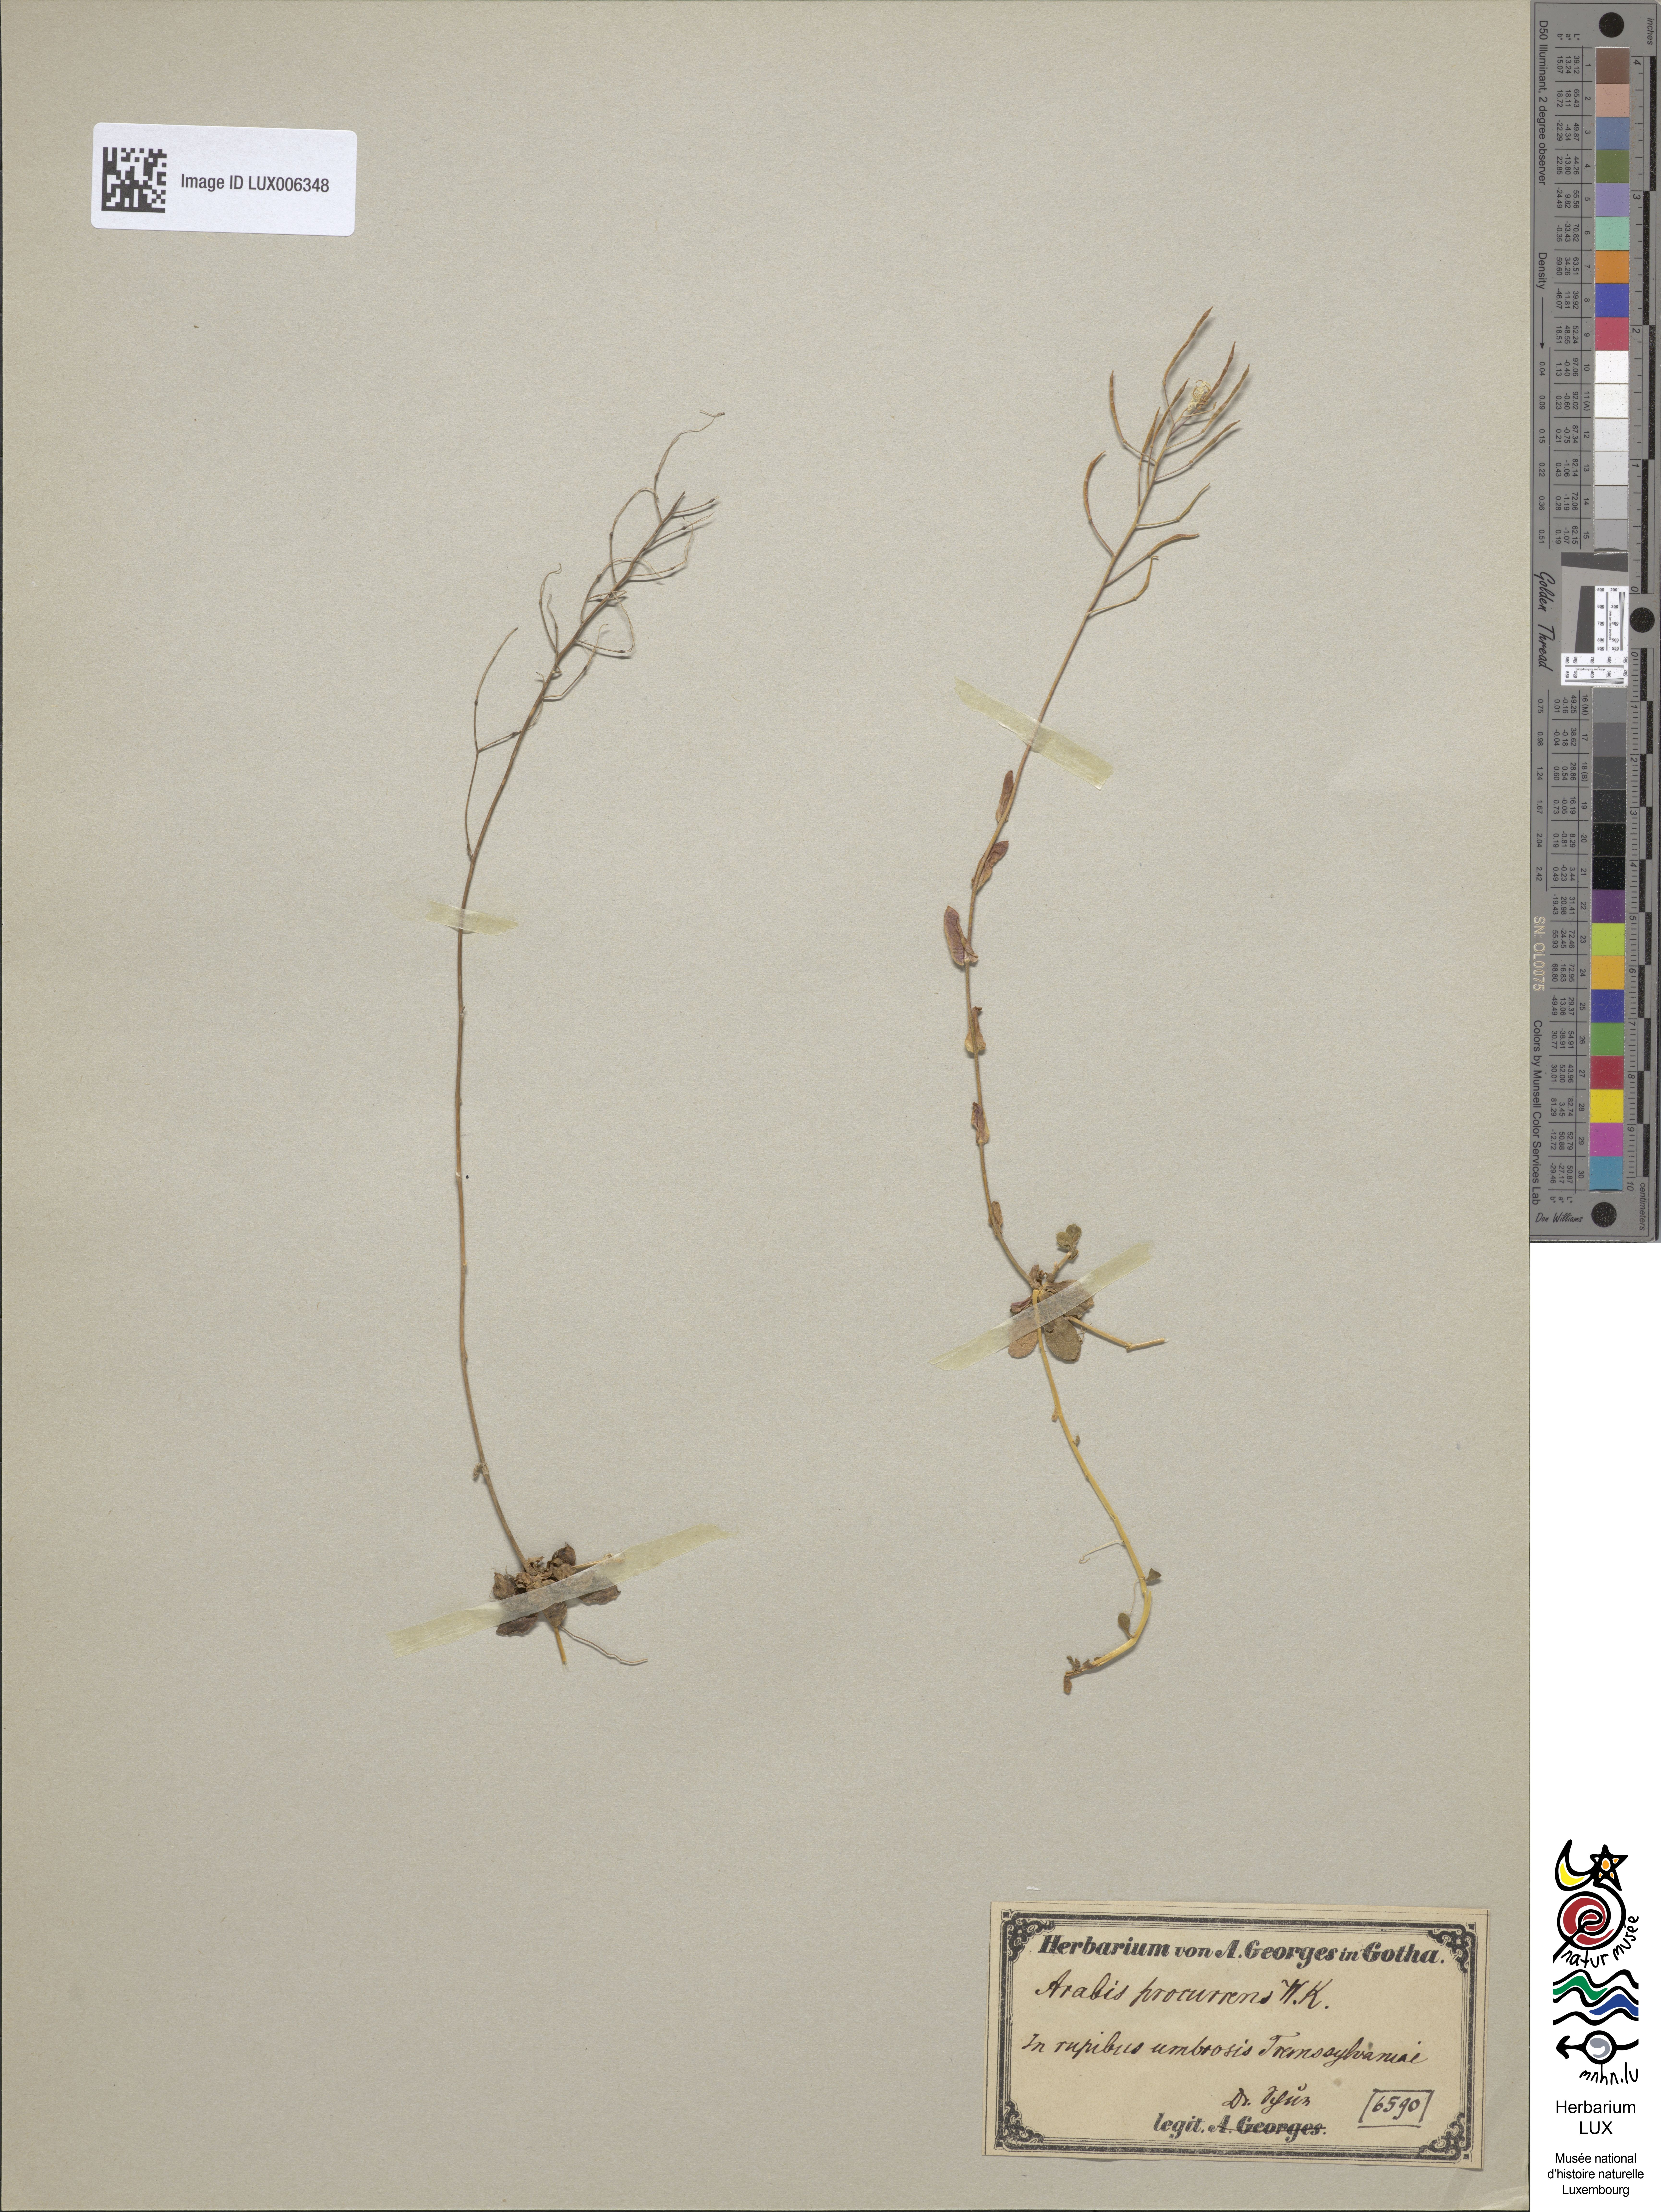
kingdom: Plantae
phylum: Tracheophyta
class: Magnoliopsida
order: Brassicales
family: Brassicaceae
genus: Arabis
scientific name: Arabis procurrens
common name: Running rockcress
